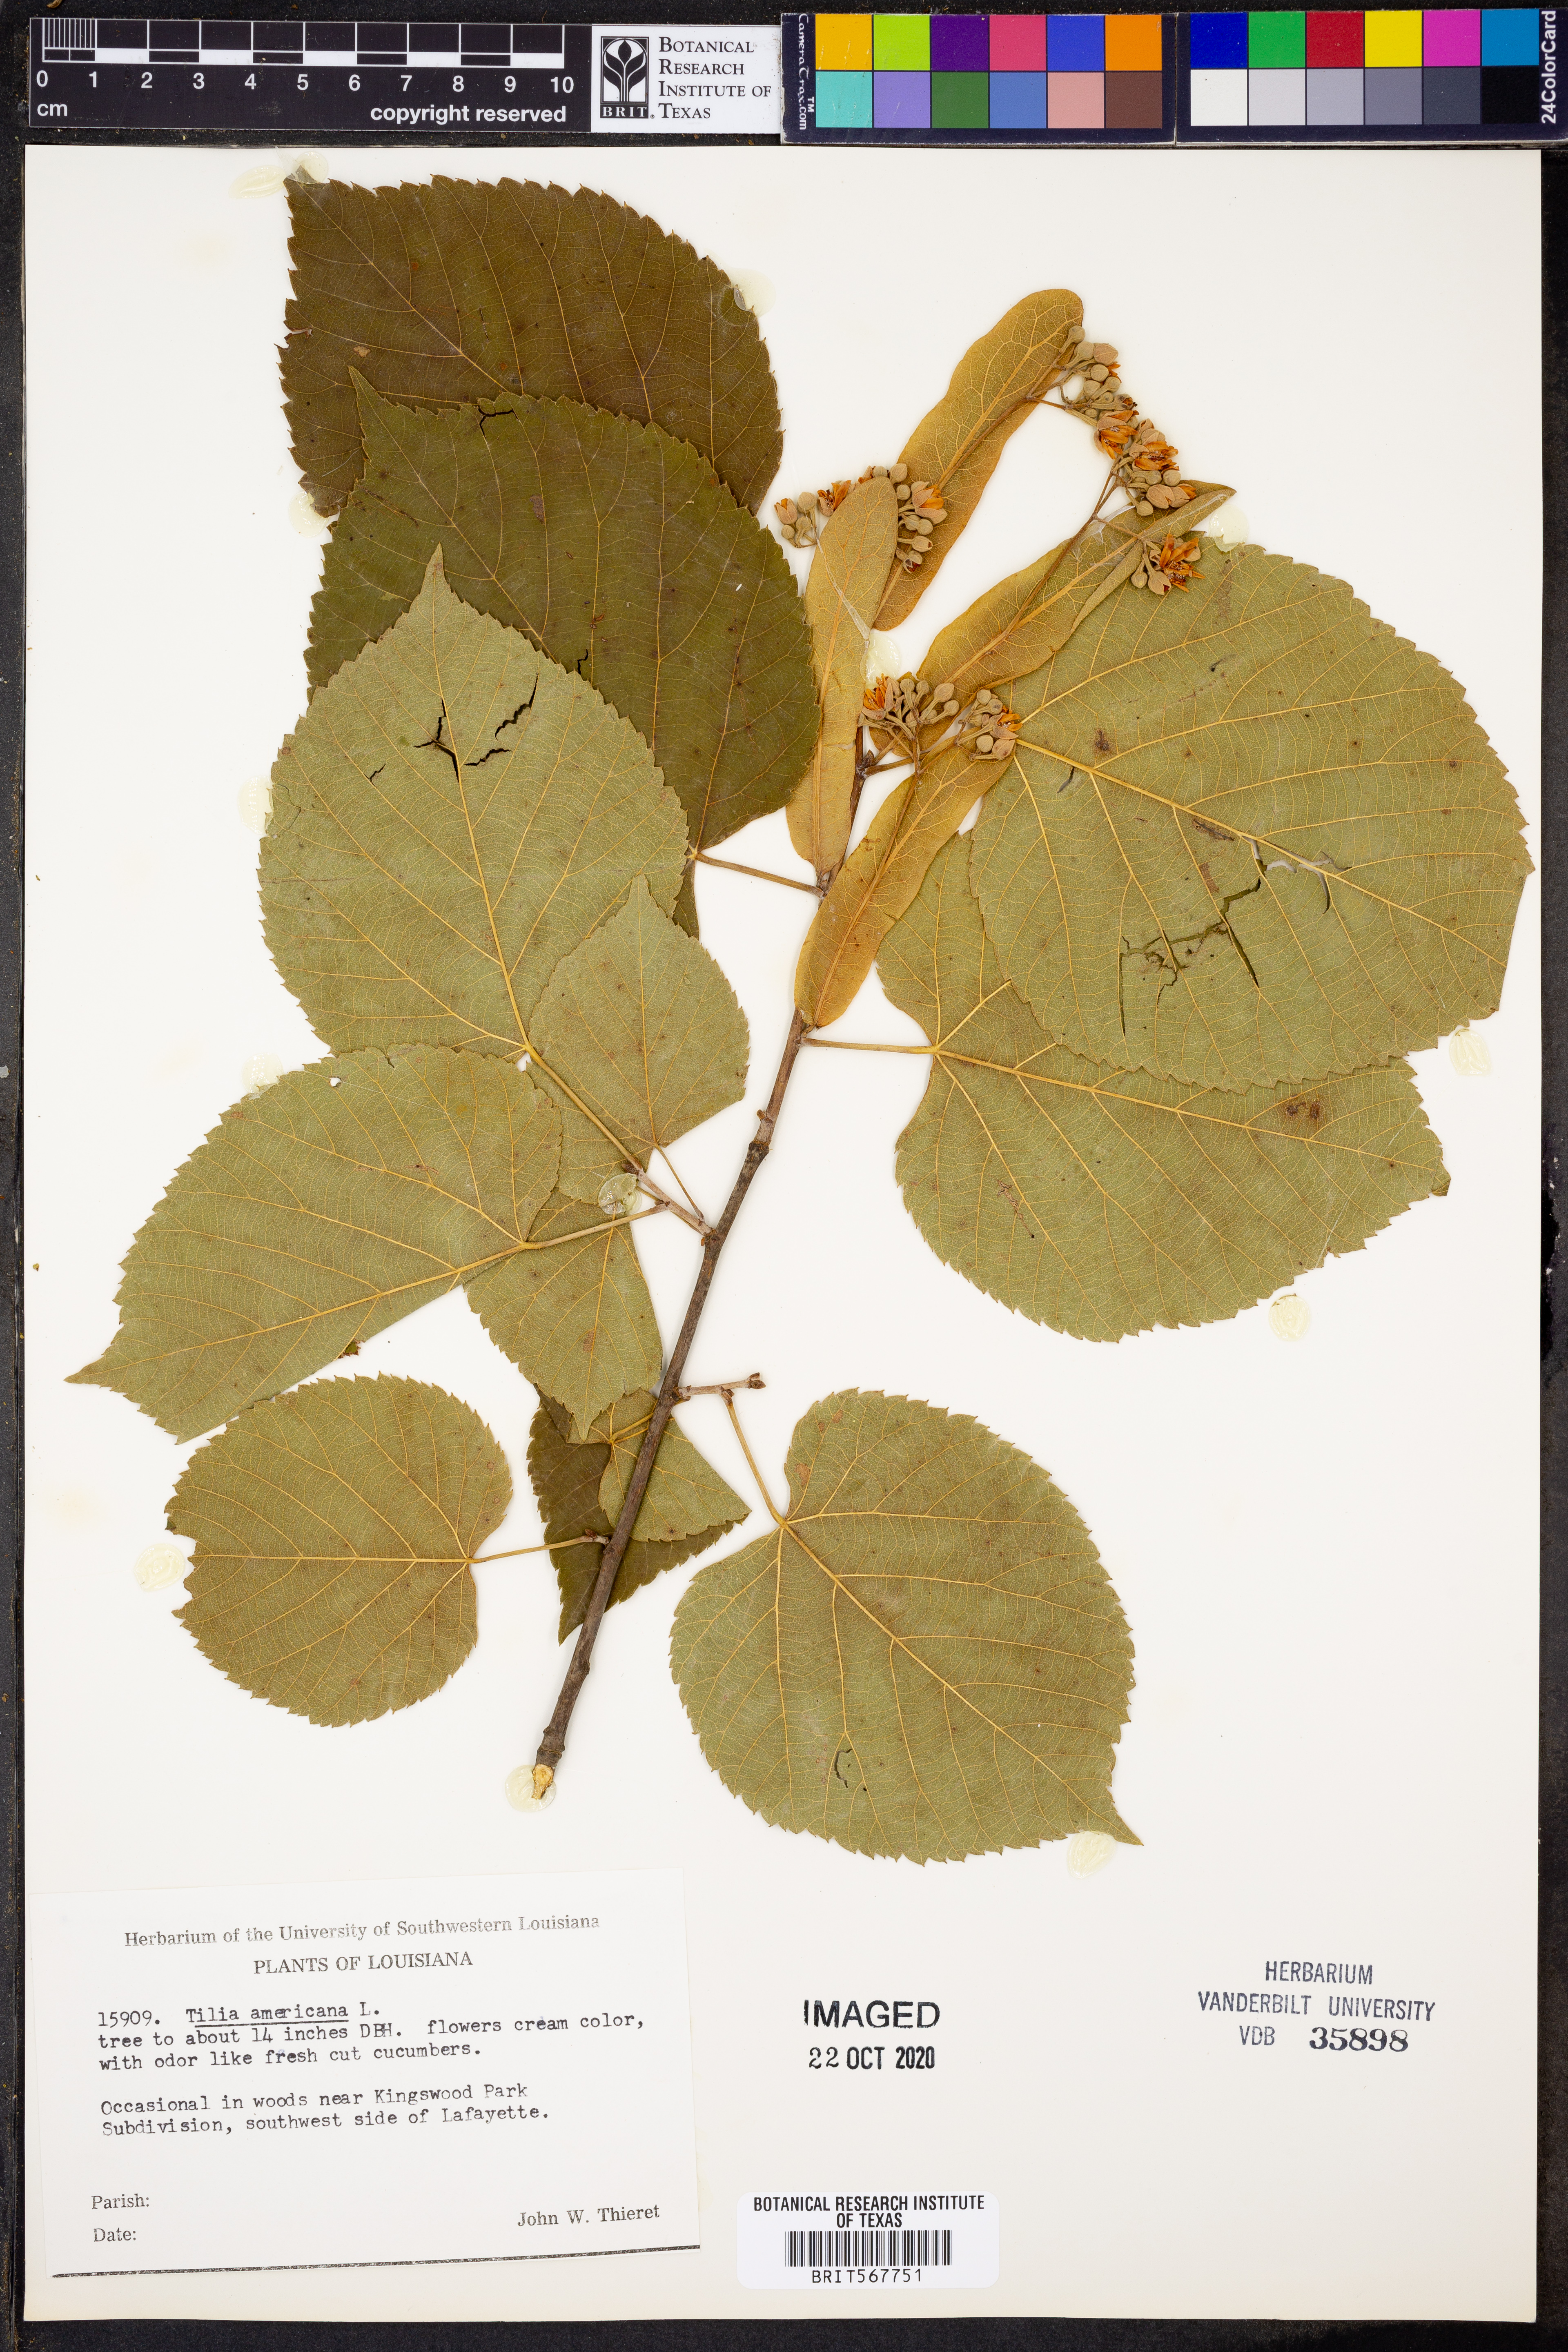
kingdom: Plantae
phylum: Tracheophyta
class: Magnoliopsida
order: Malvales
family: Malvaceae
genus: Tilia
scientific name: Tilia americana
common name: Basswood
